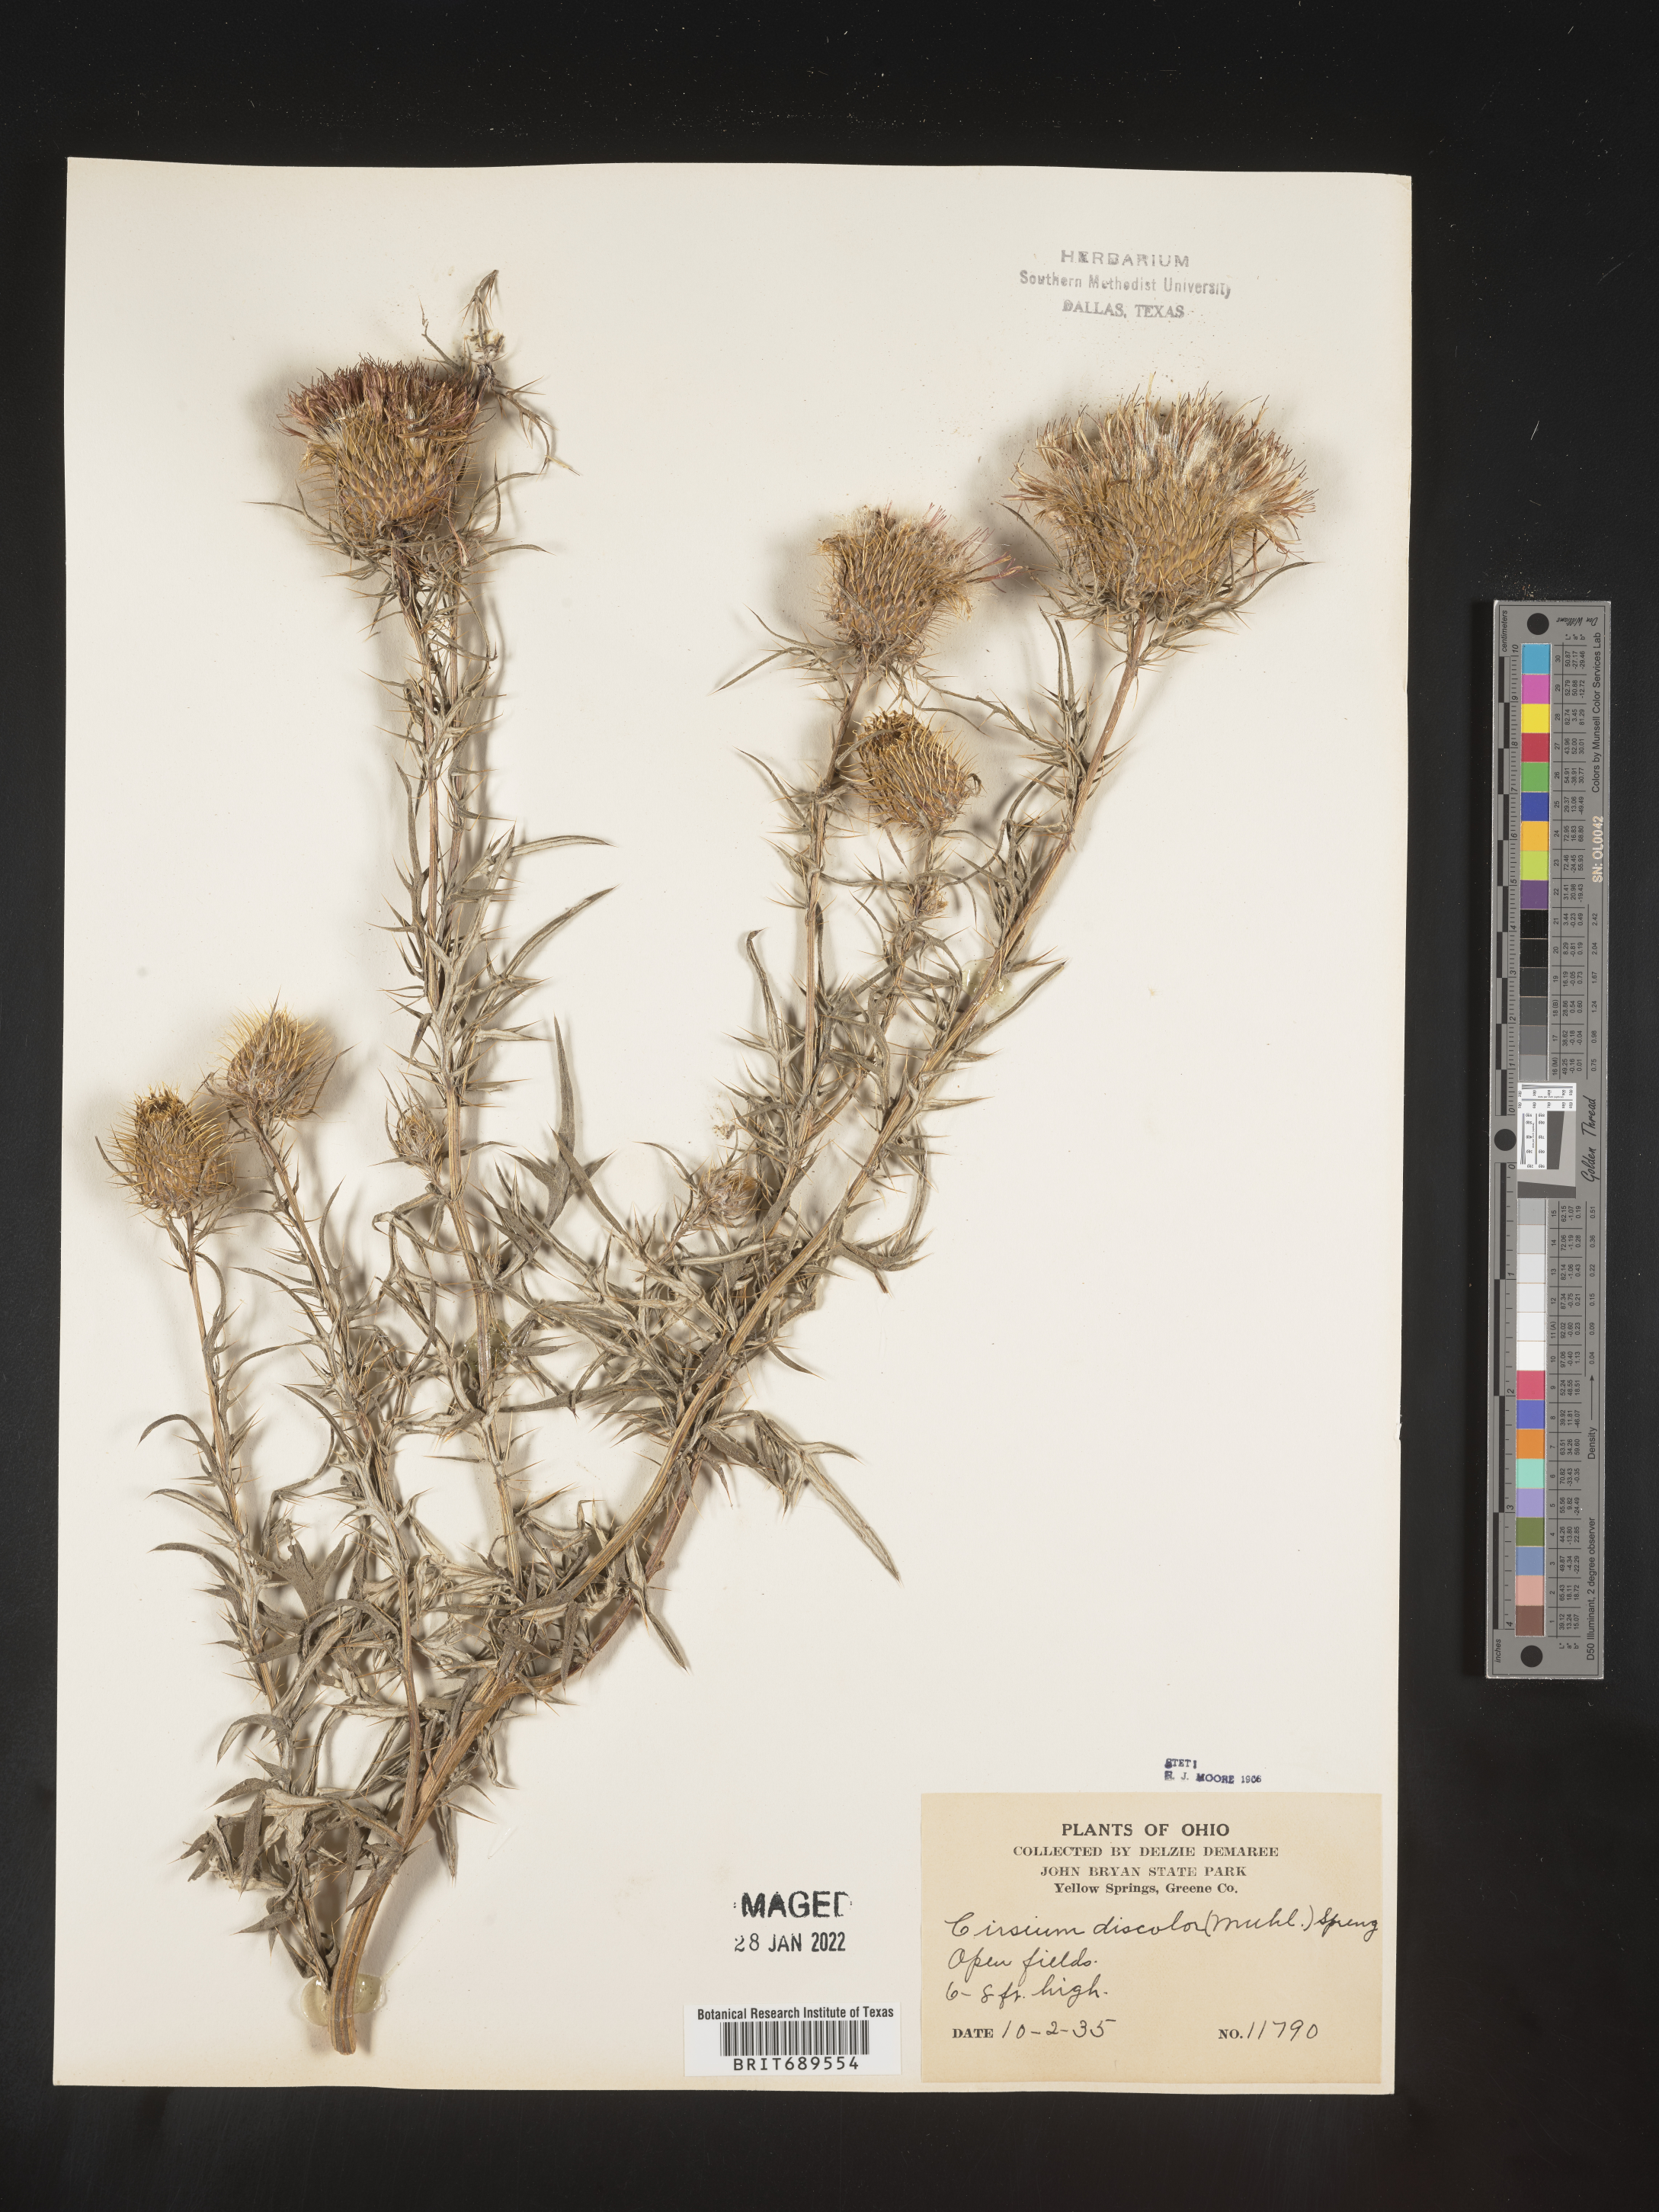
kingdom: Plantae
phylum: Tracheophyta
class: Magnoliopsida
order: Asterales
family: Asteraceae
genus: Cirsium
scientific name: Cirsium discolor
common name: Field thistle
